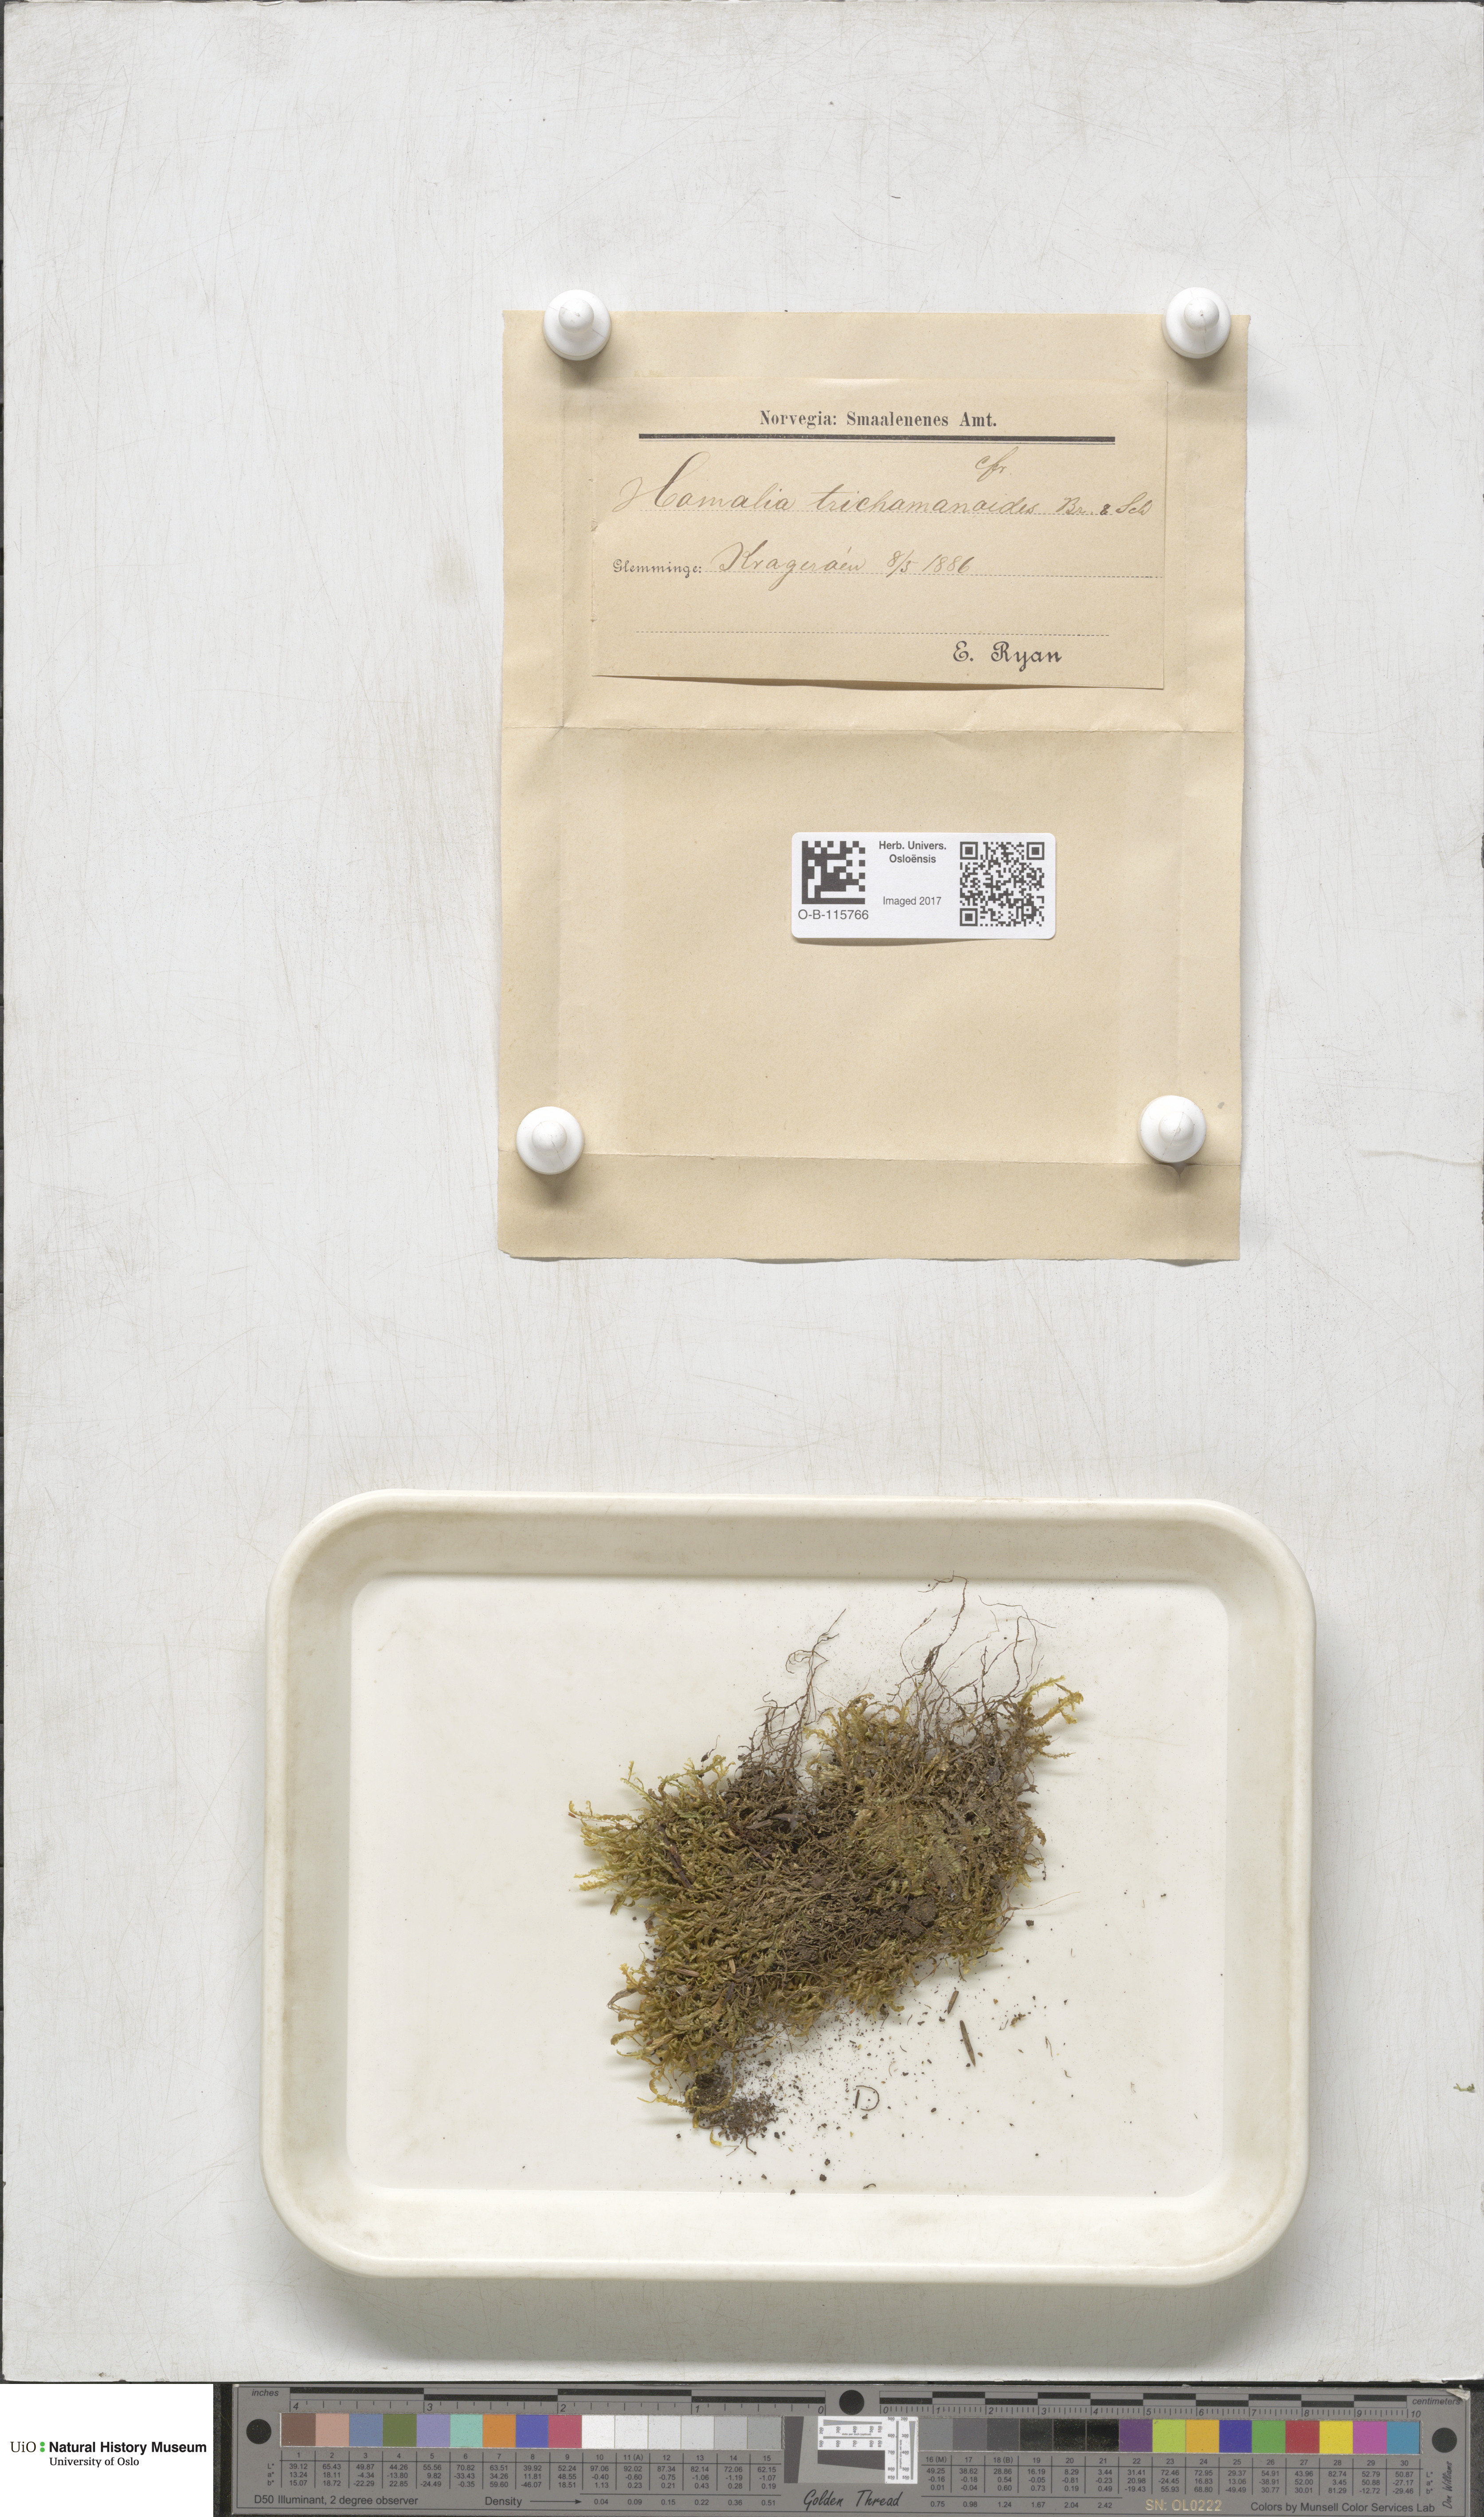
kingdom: Plantae
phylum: Bryophyta
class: Bryopsida
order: Hypnales
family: Neckeraceae
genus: Homalia
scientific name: Homalia trichomanoides
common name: Lime homalia moss
